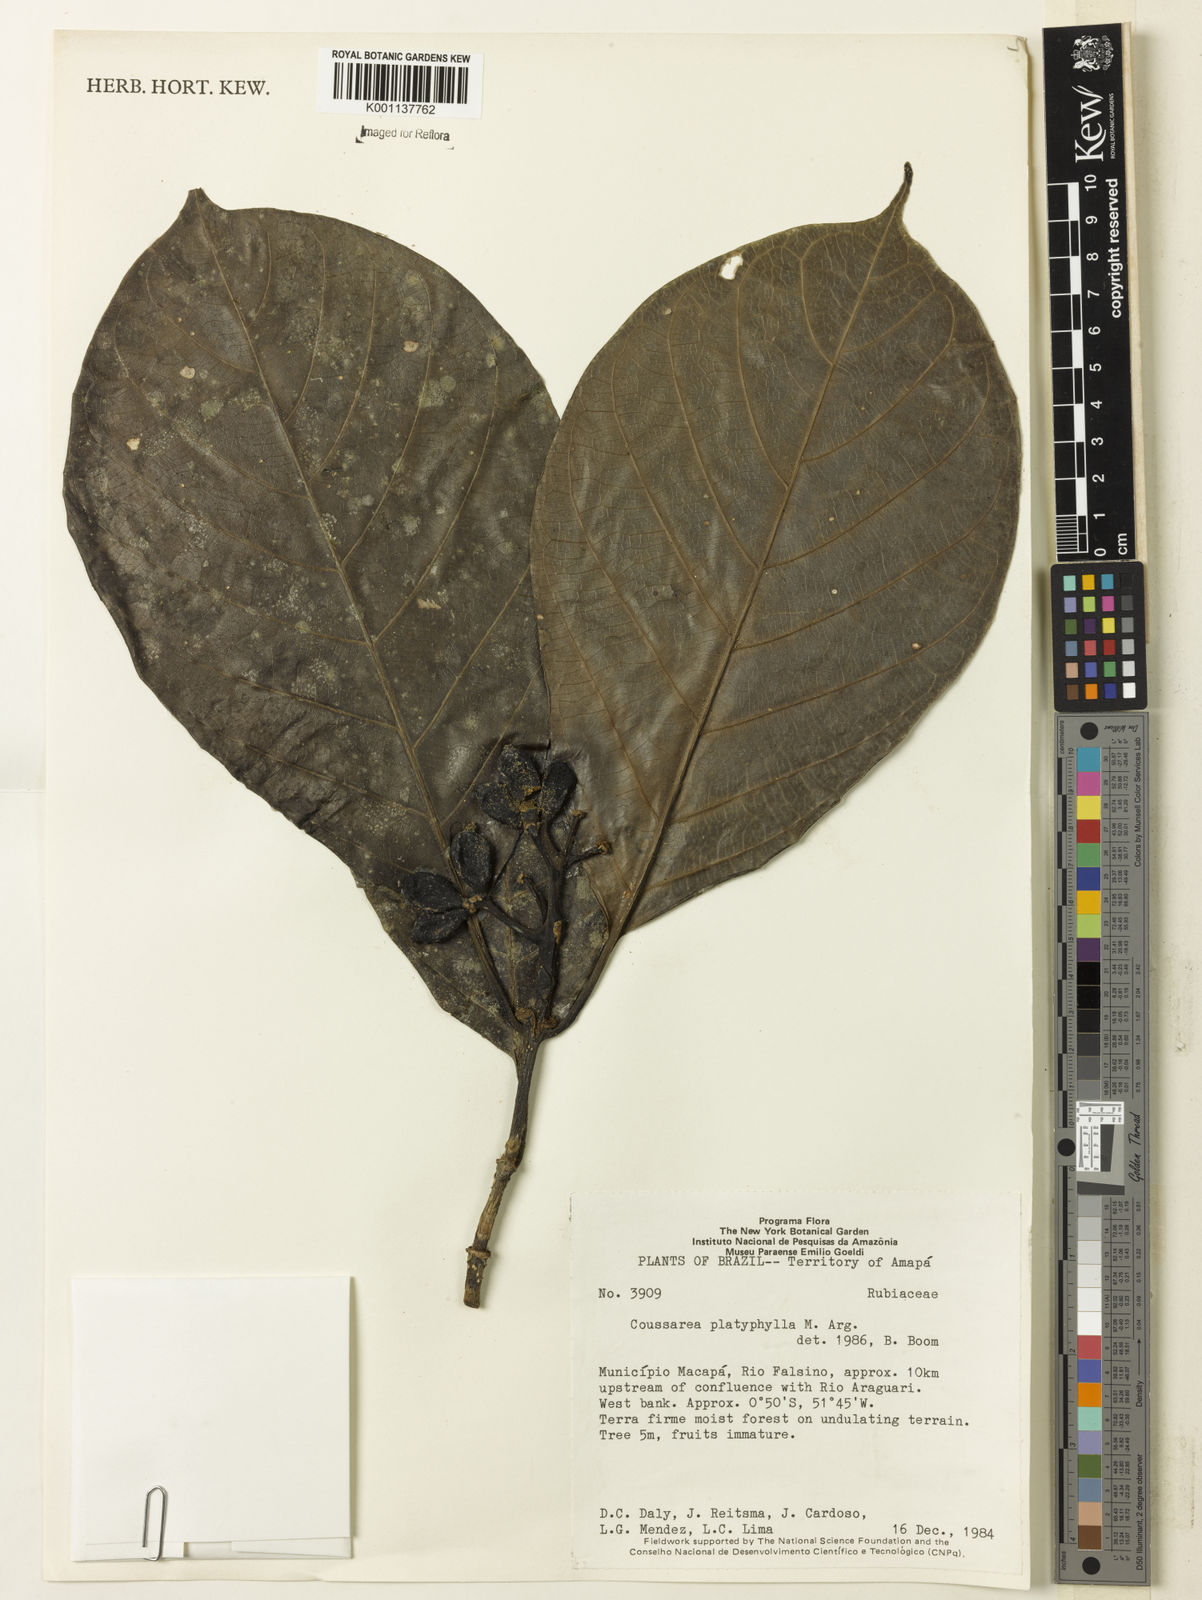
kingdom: Plantae
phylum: Tracheophyta
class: Magnoliopsida
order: Gentianales
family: Rubiaceae
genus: Coussarea
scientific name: Coussarea
